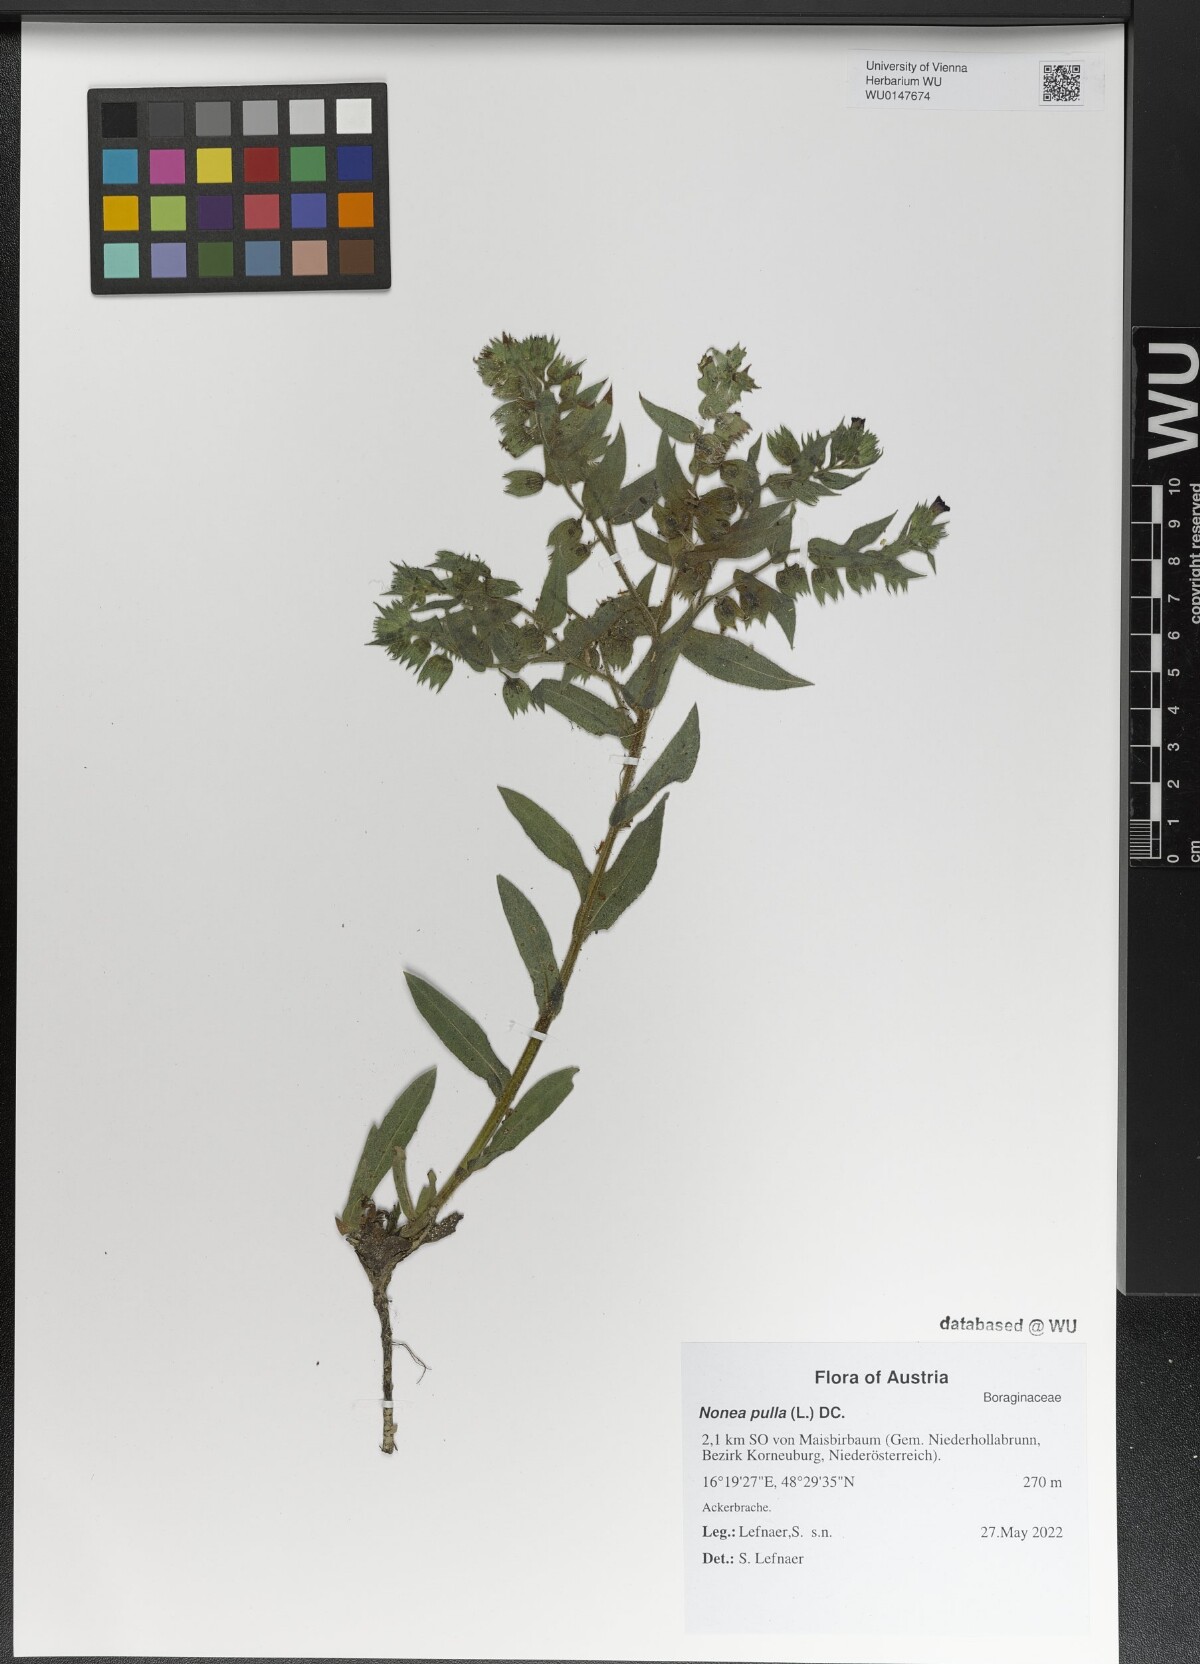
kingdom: Plantae
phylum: Tracheophyta
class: Magnoliopsida
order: Boraginales
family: Boraginaceae
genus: Nonea
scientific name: Nonea pulla
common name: Brown nonea
